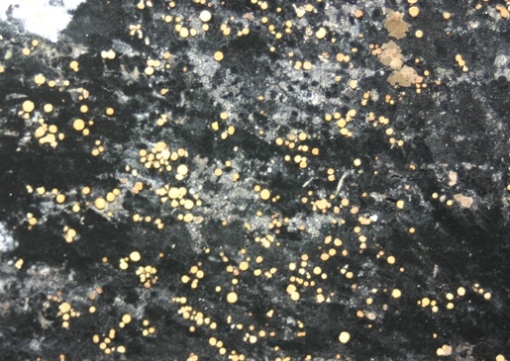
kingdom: Fungi
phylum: Ascomycota
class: Leotiomycetes
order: Helotiales
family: Helotiaceae
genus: Bispora
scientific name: Bispora pallescens
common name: måtte-snitskive
